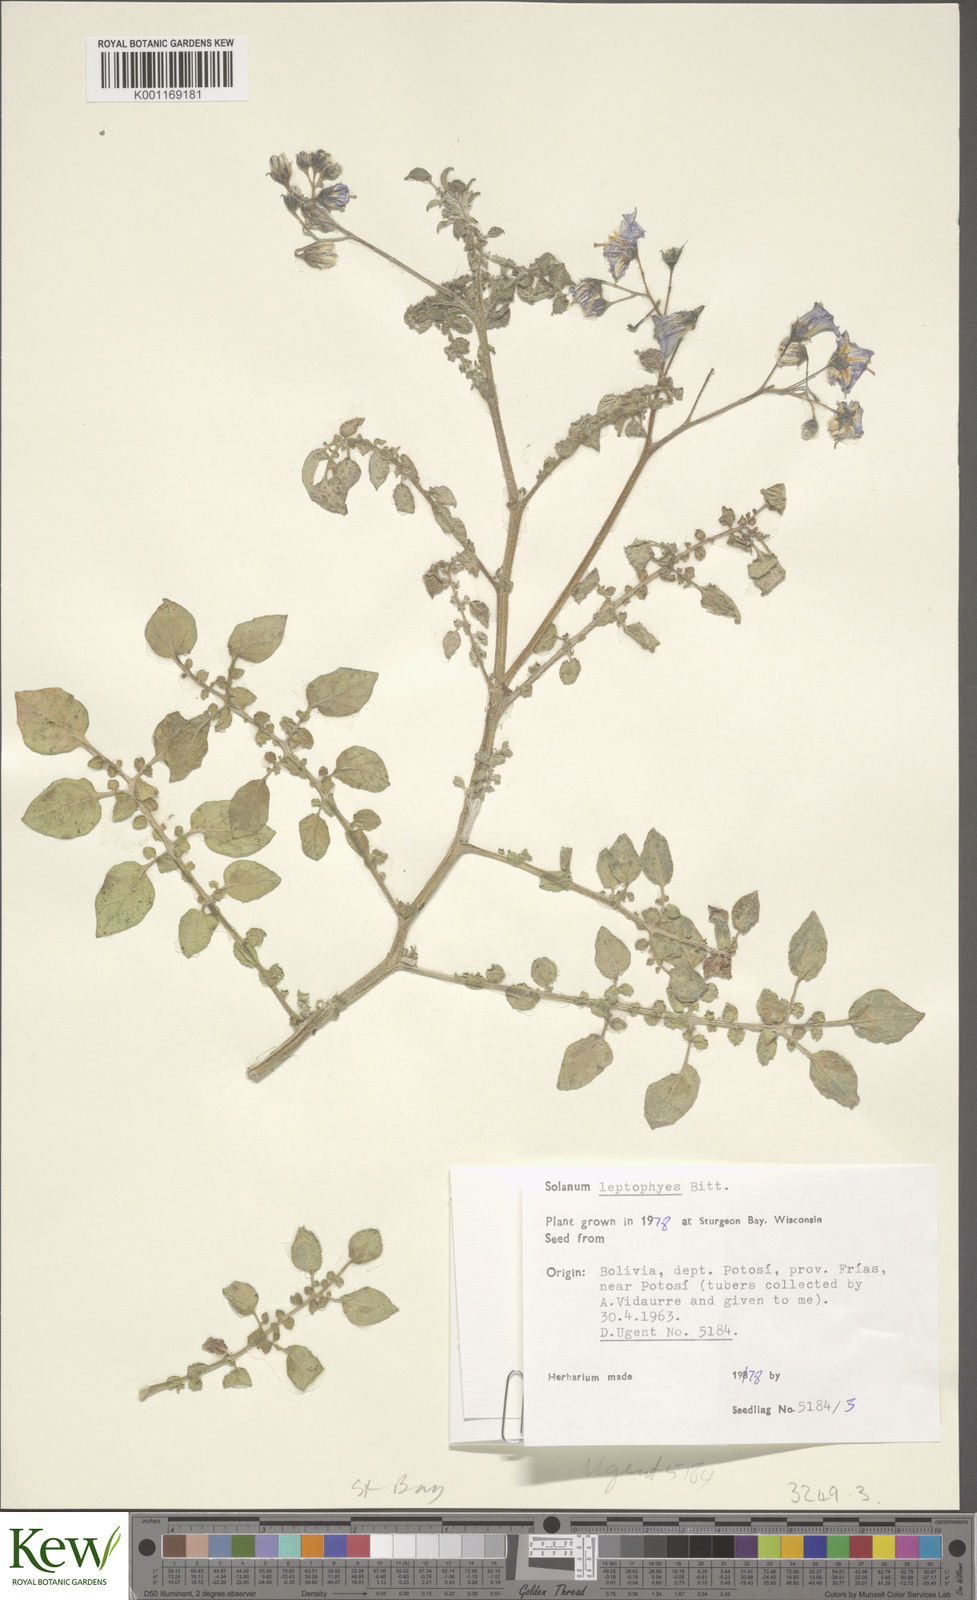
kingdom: Plantae
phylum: Tracheophyta
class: Magnoliopsida
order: Solanales
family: Solanaceae
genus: Solanum
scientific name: Solanum brevicaule
